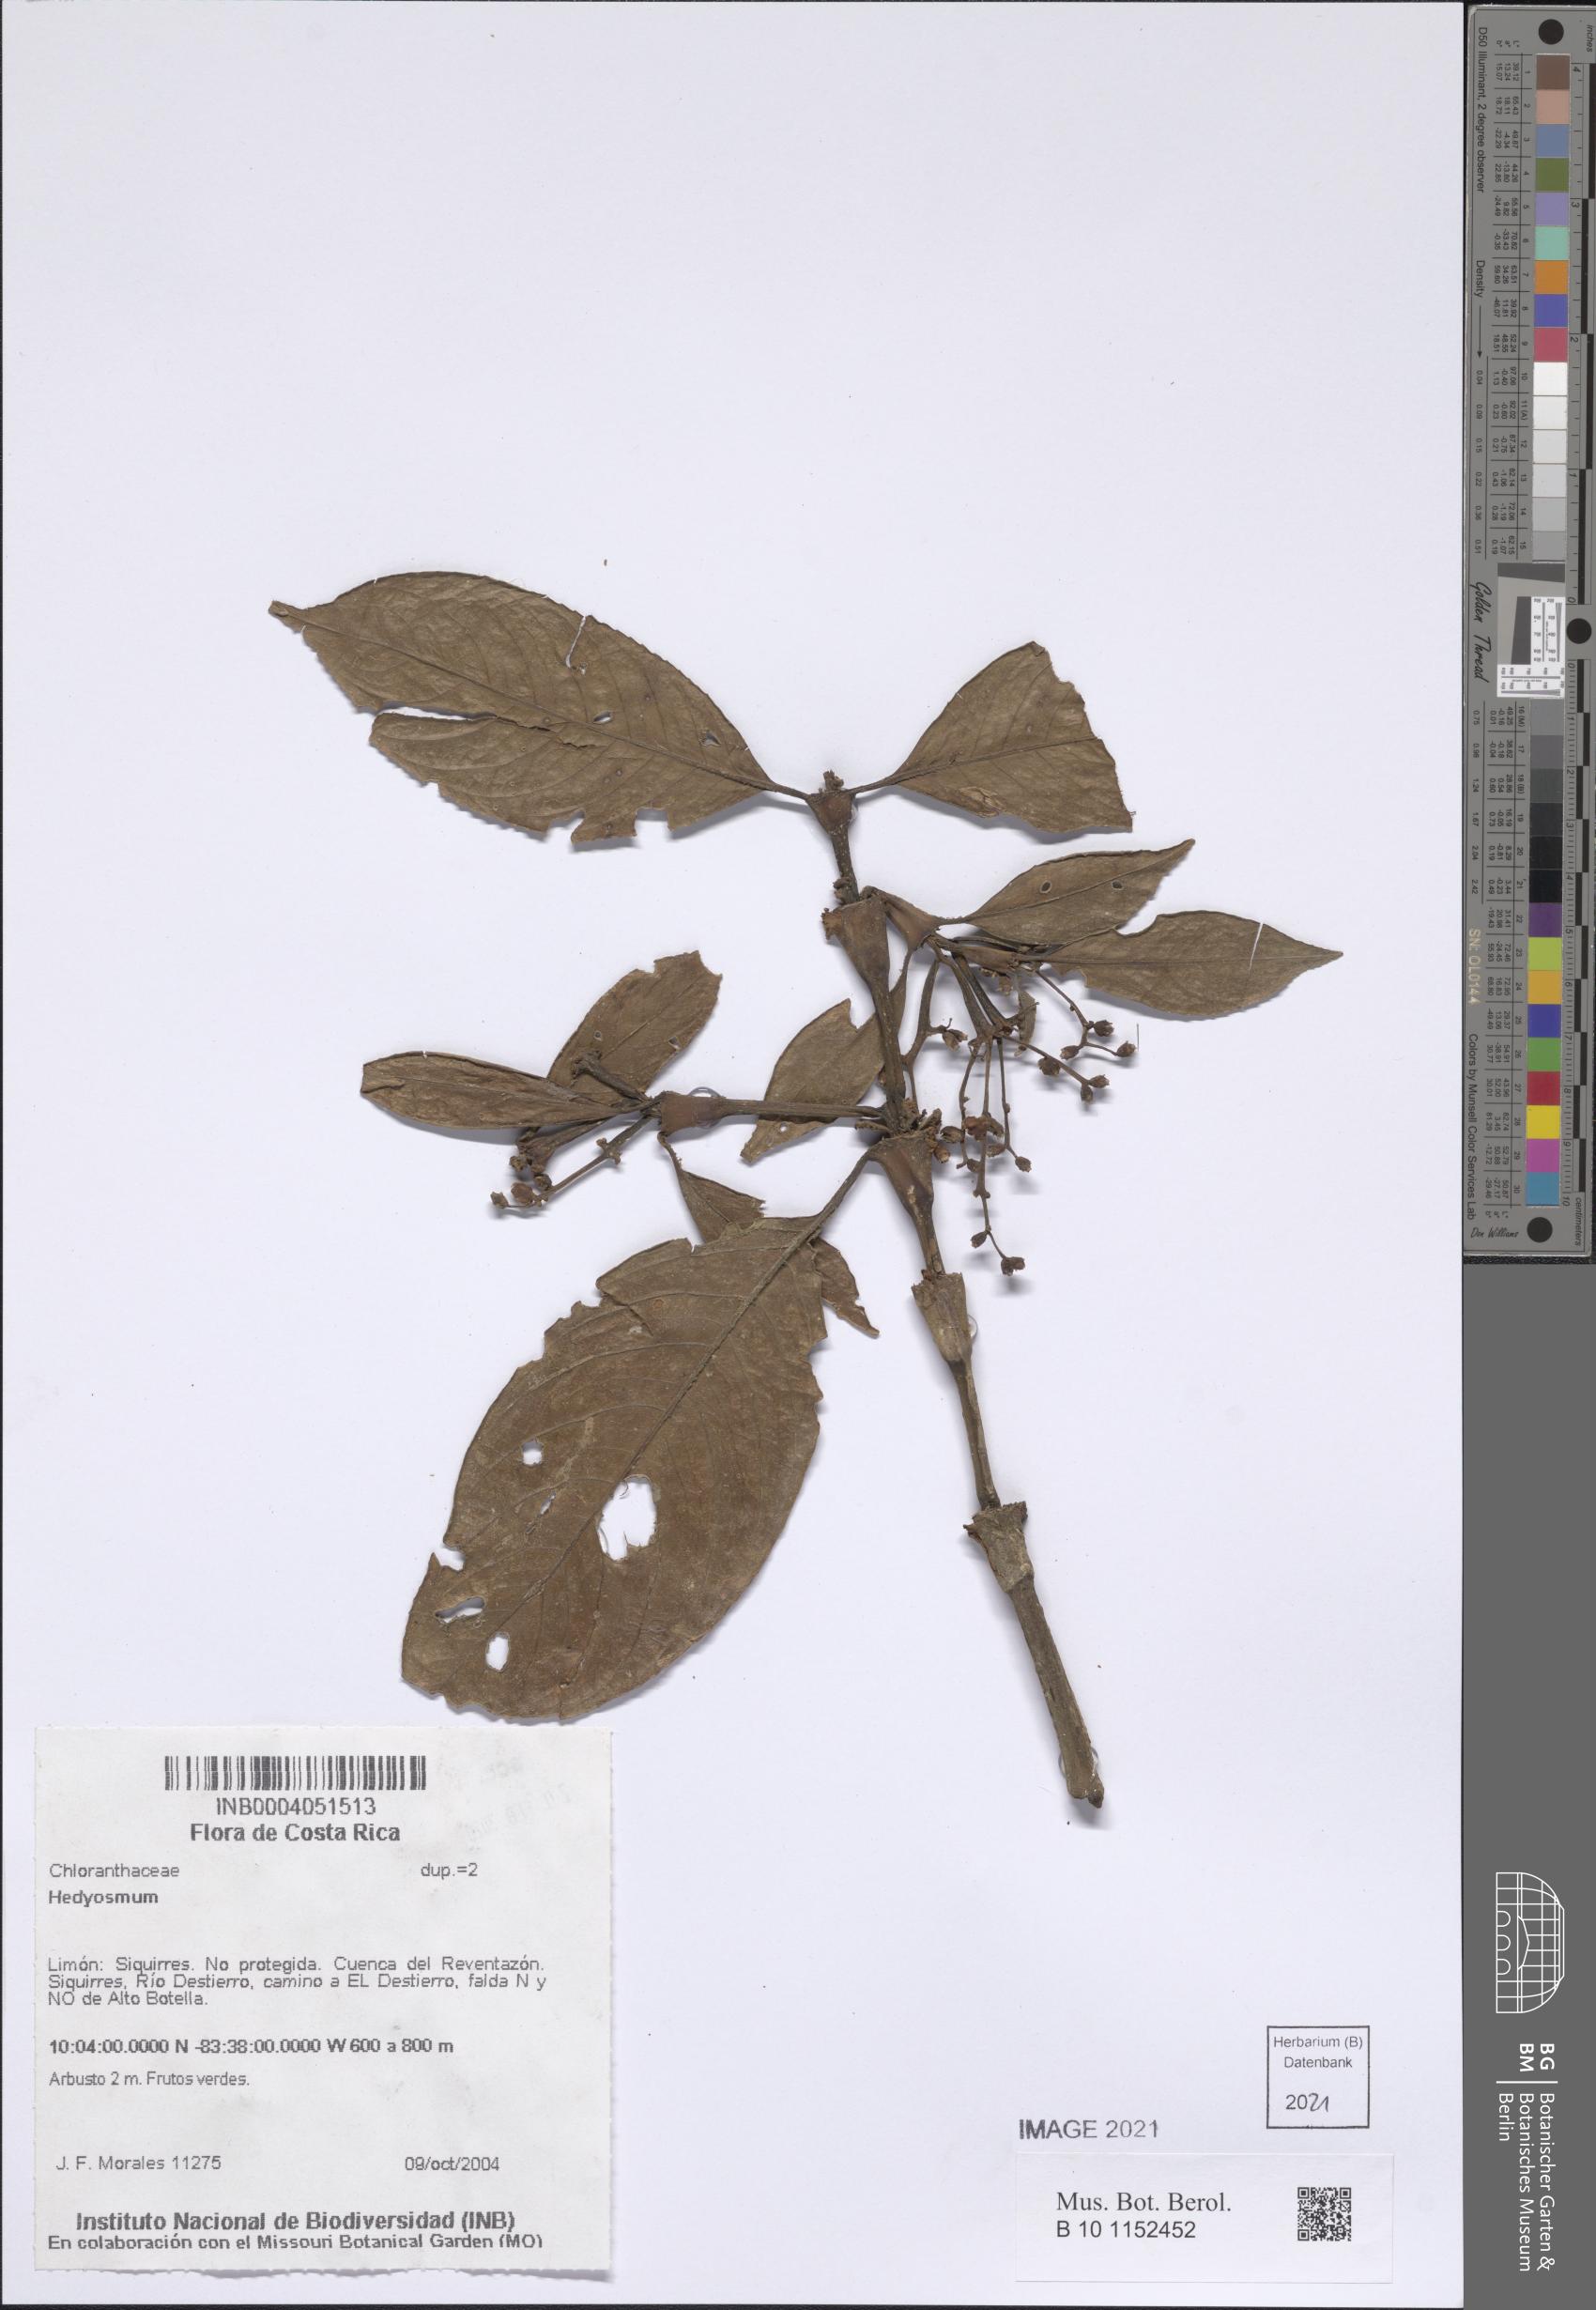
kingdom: Plantae
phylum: Tracheophyta
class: Magnoliopsida
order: Chloranthales
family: Chloranthaceae
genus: Hedyosmum
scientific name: Hedyosmum
